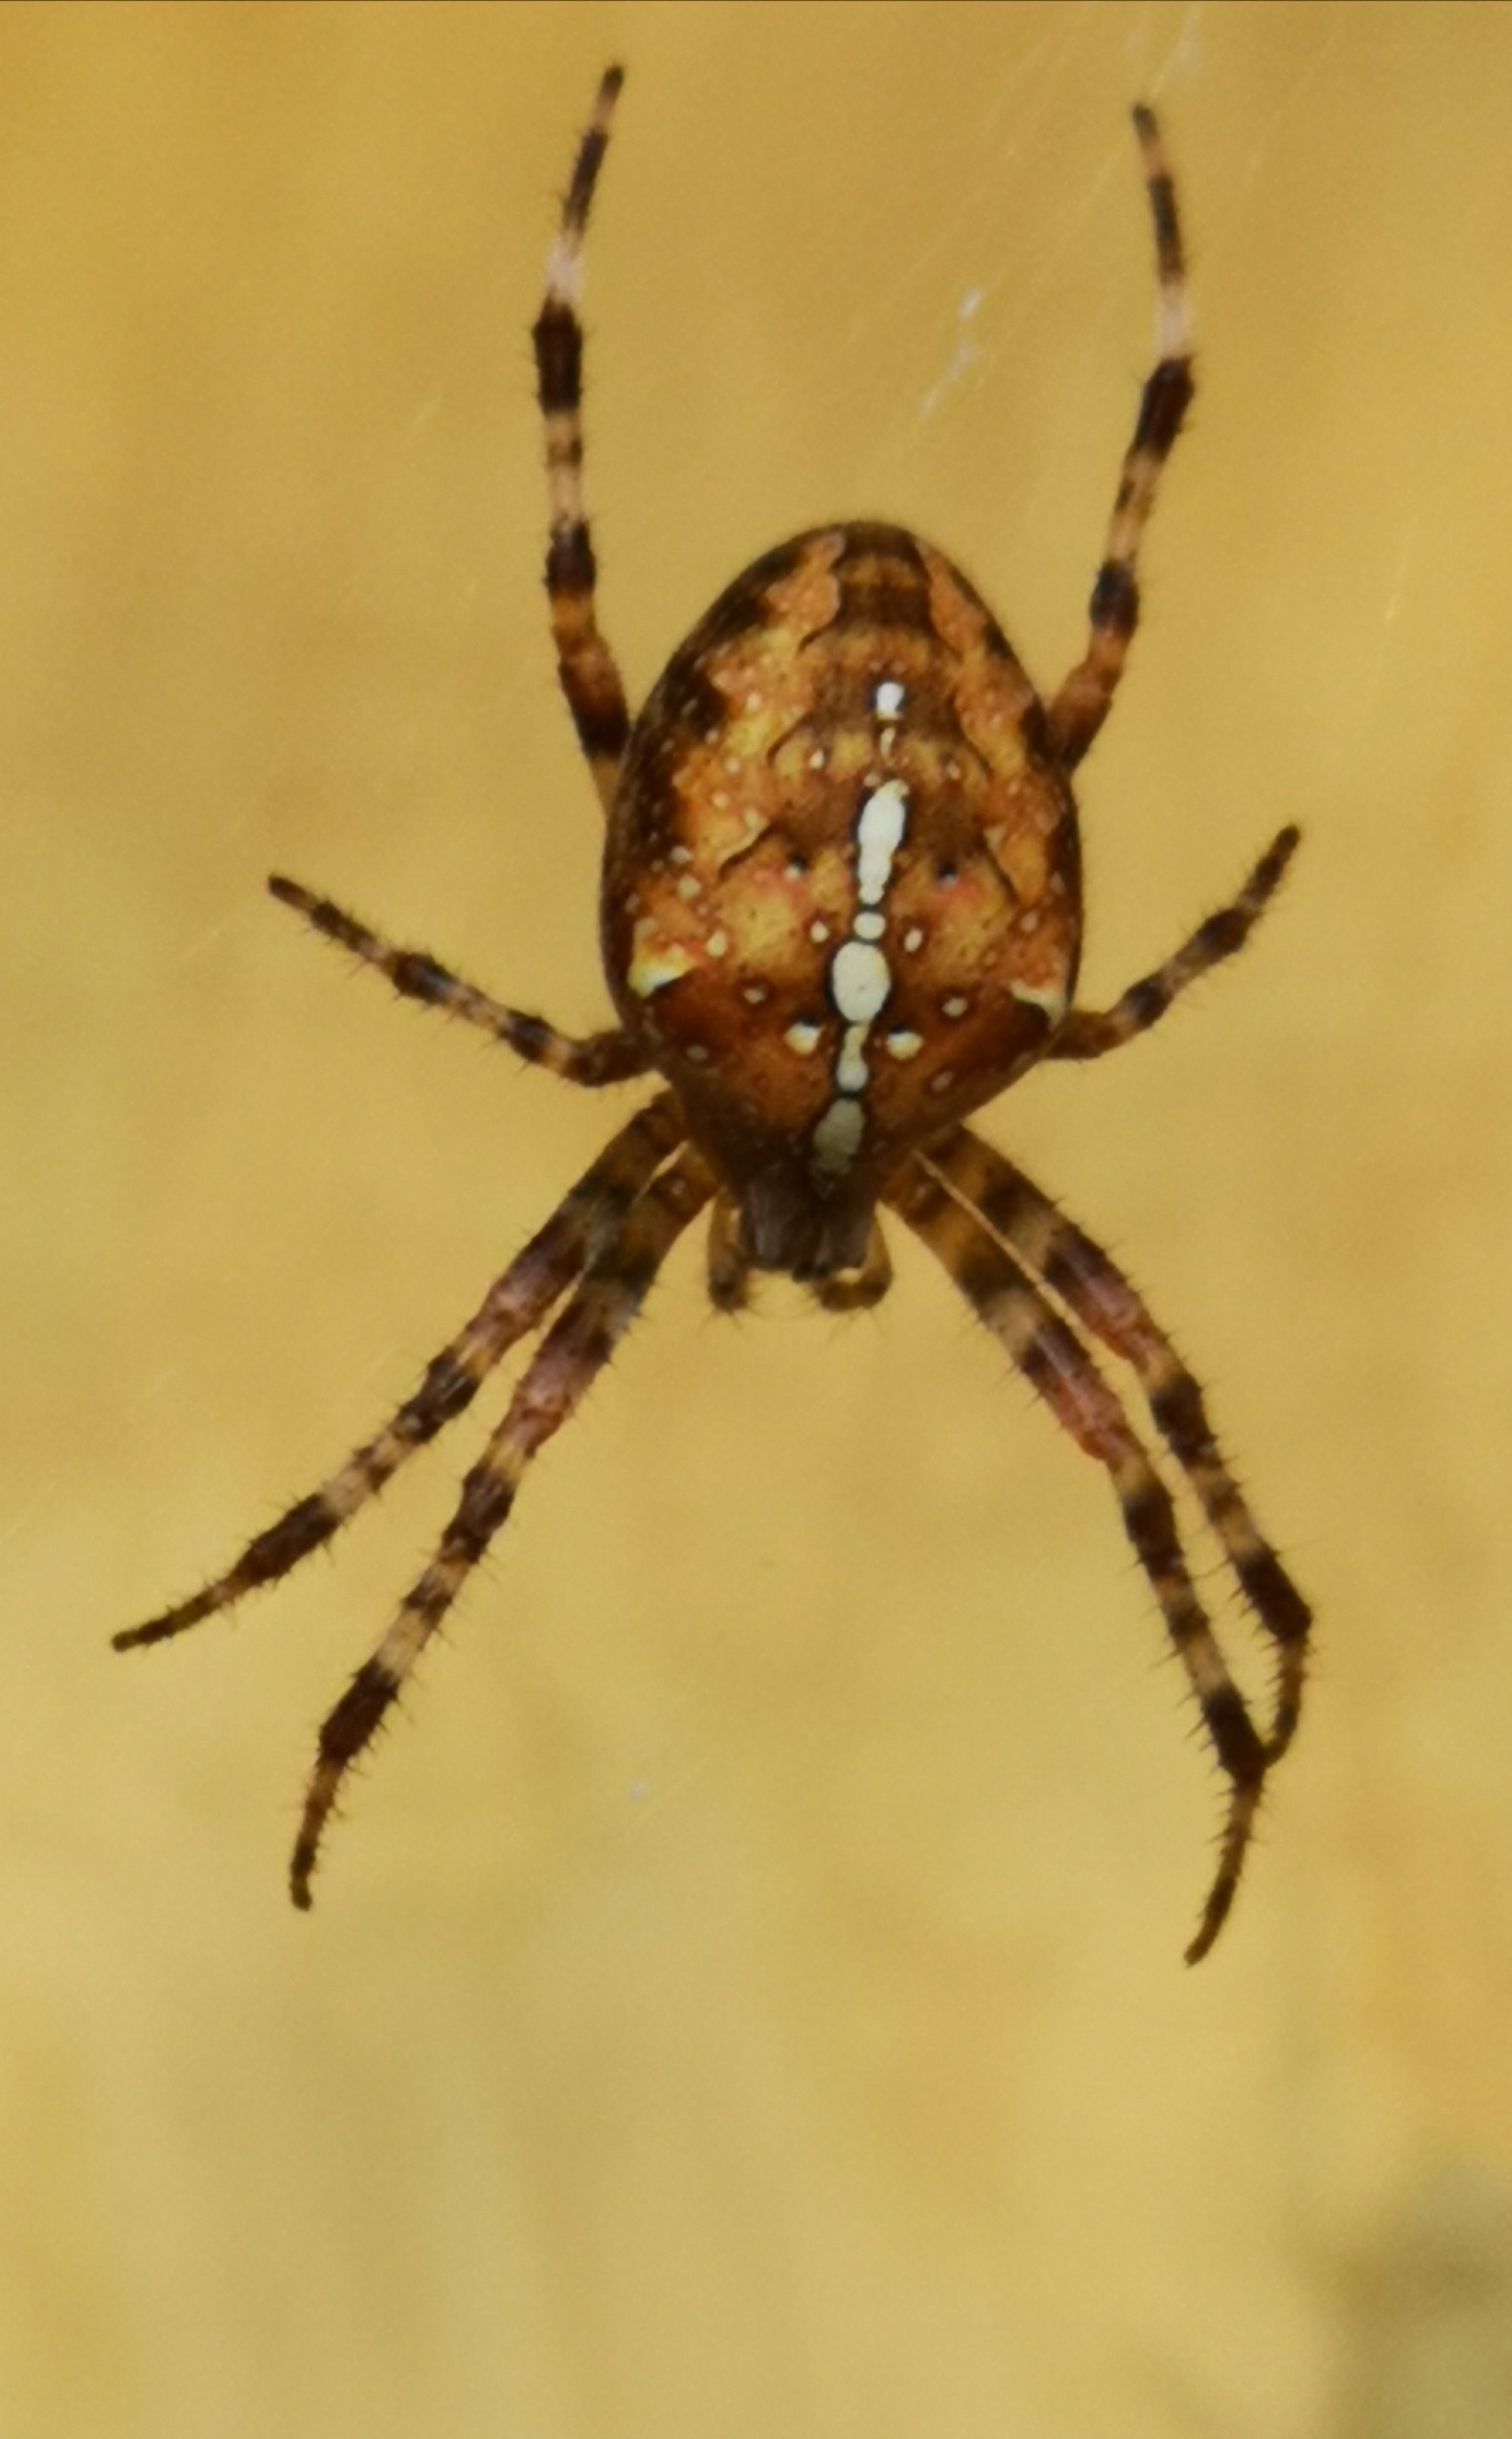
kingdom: Animalia
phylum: Arthropoda
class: Arachnida
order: Araneae
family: Araneidae
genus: Araneus
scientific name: Araneus diadematus
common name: Korsedderkop
